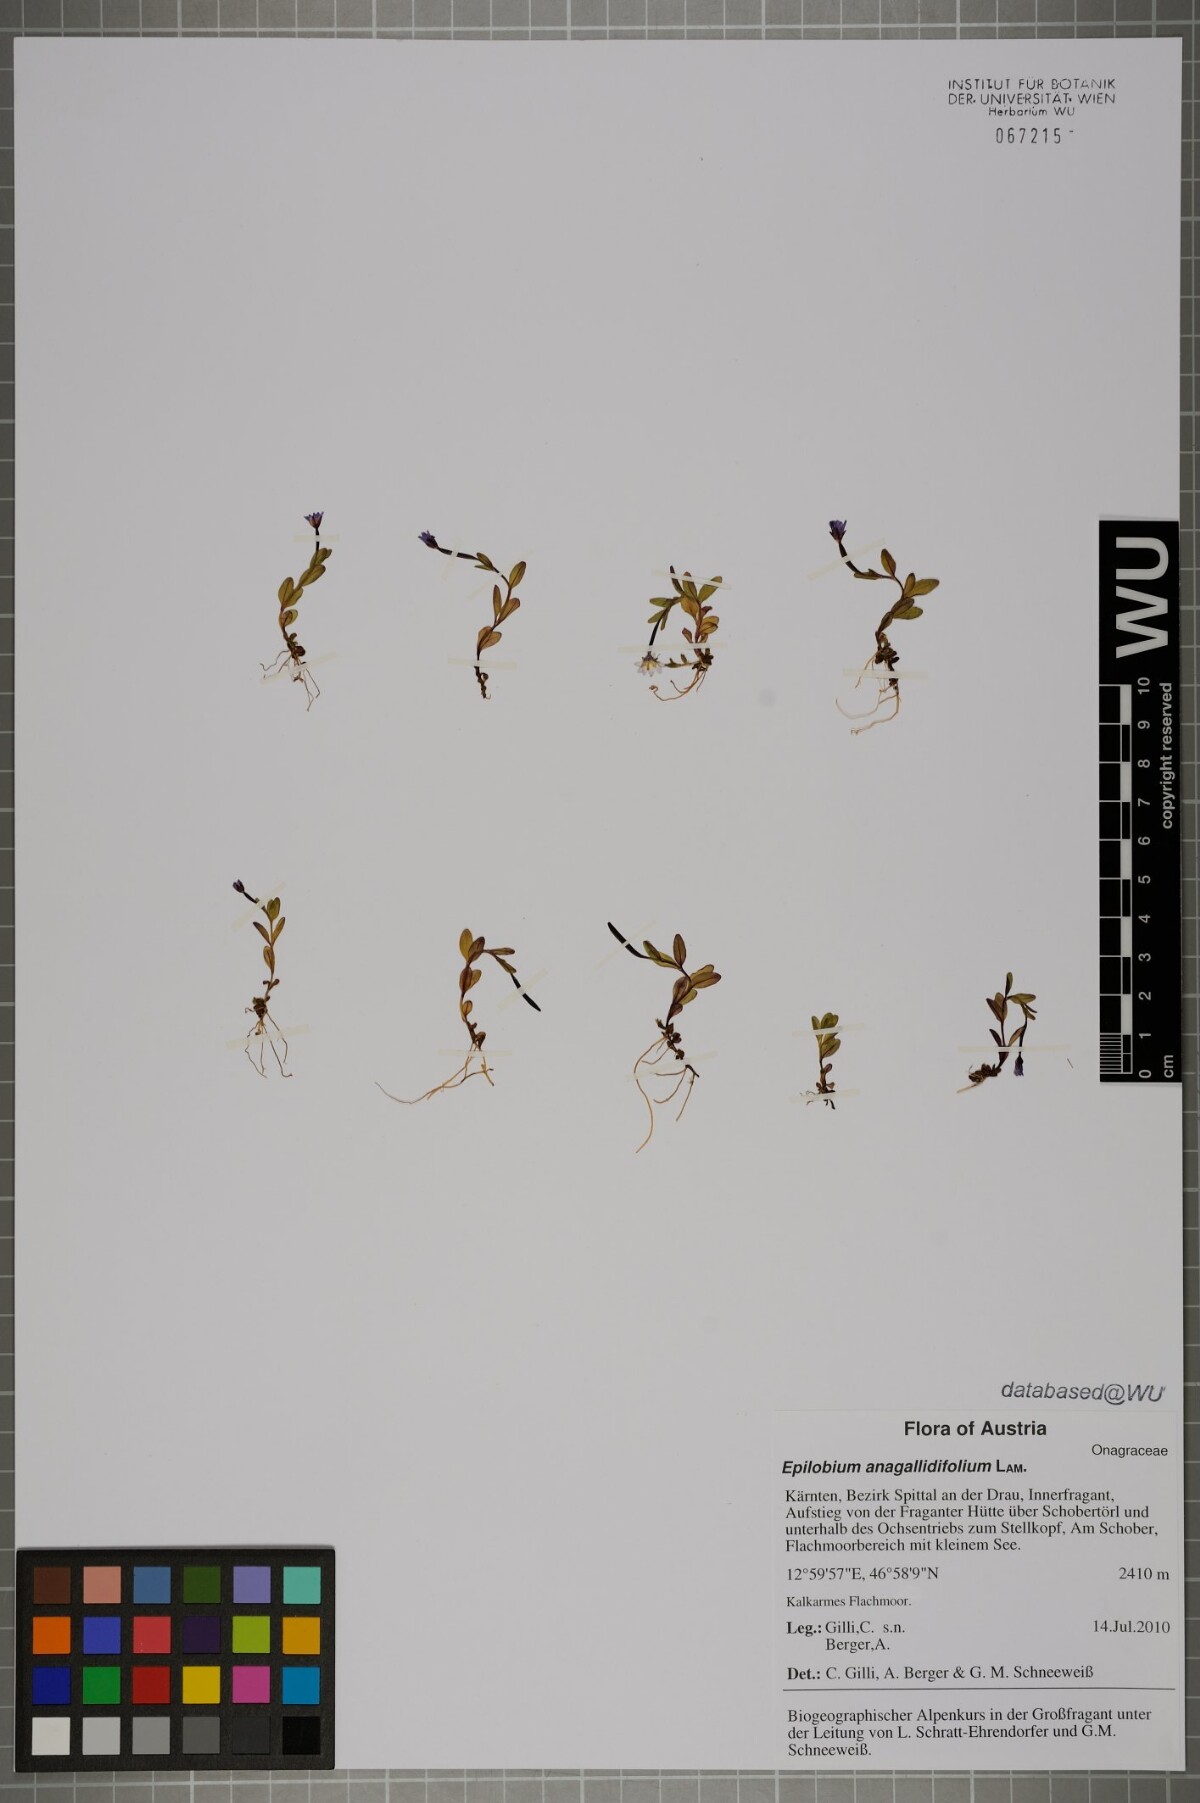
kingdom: Plantae
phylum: Tracheophyta
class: Magnoliopsida
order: Myrtales
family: Onagraceae
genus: Epilobium
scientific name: Epilobium anagallidifolium
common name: Alpine willowherb
